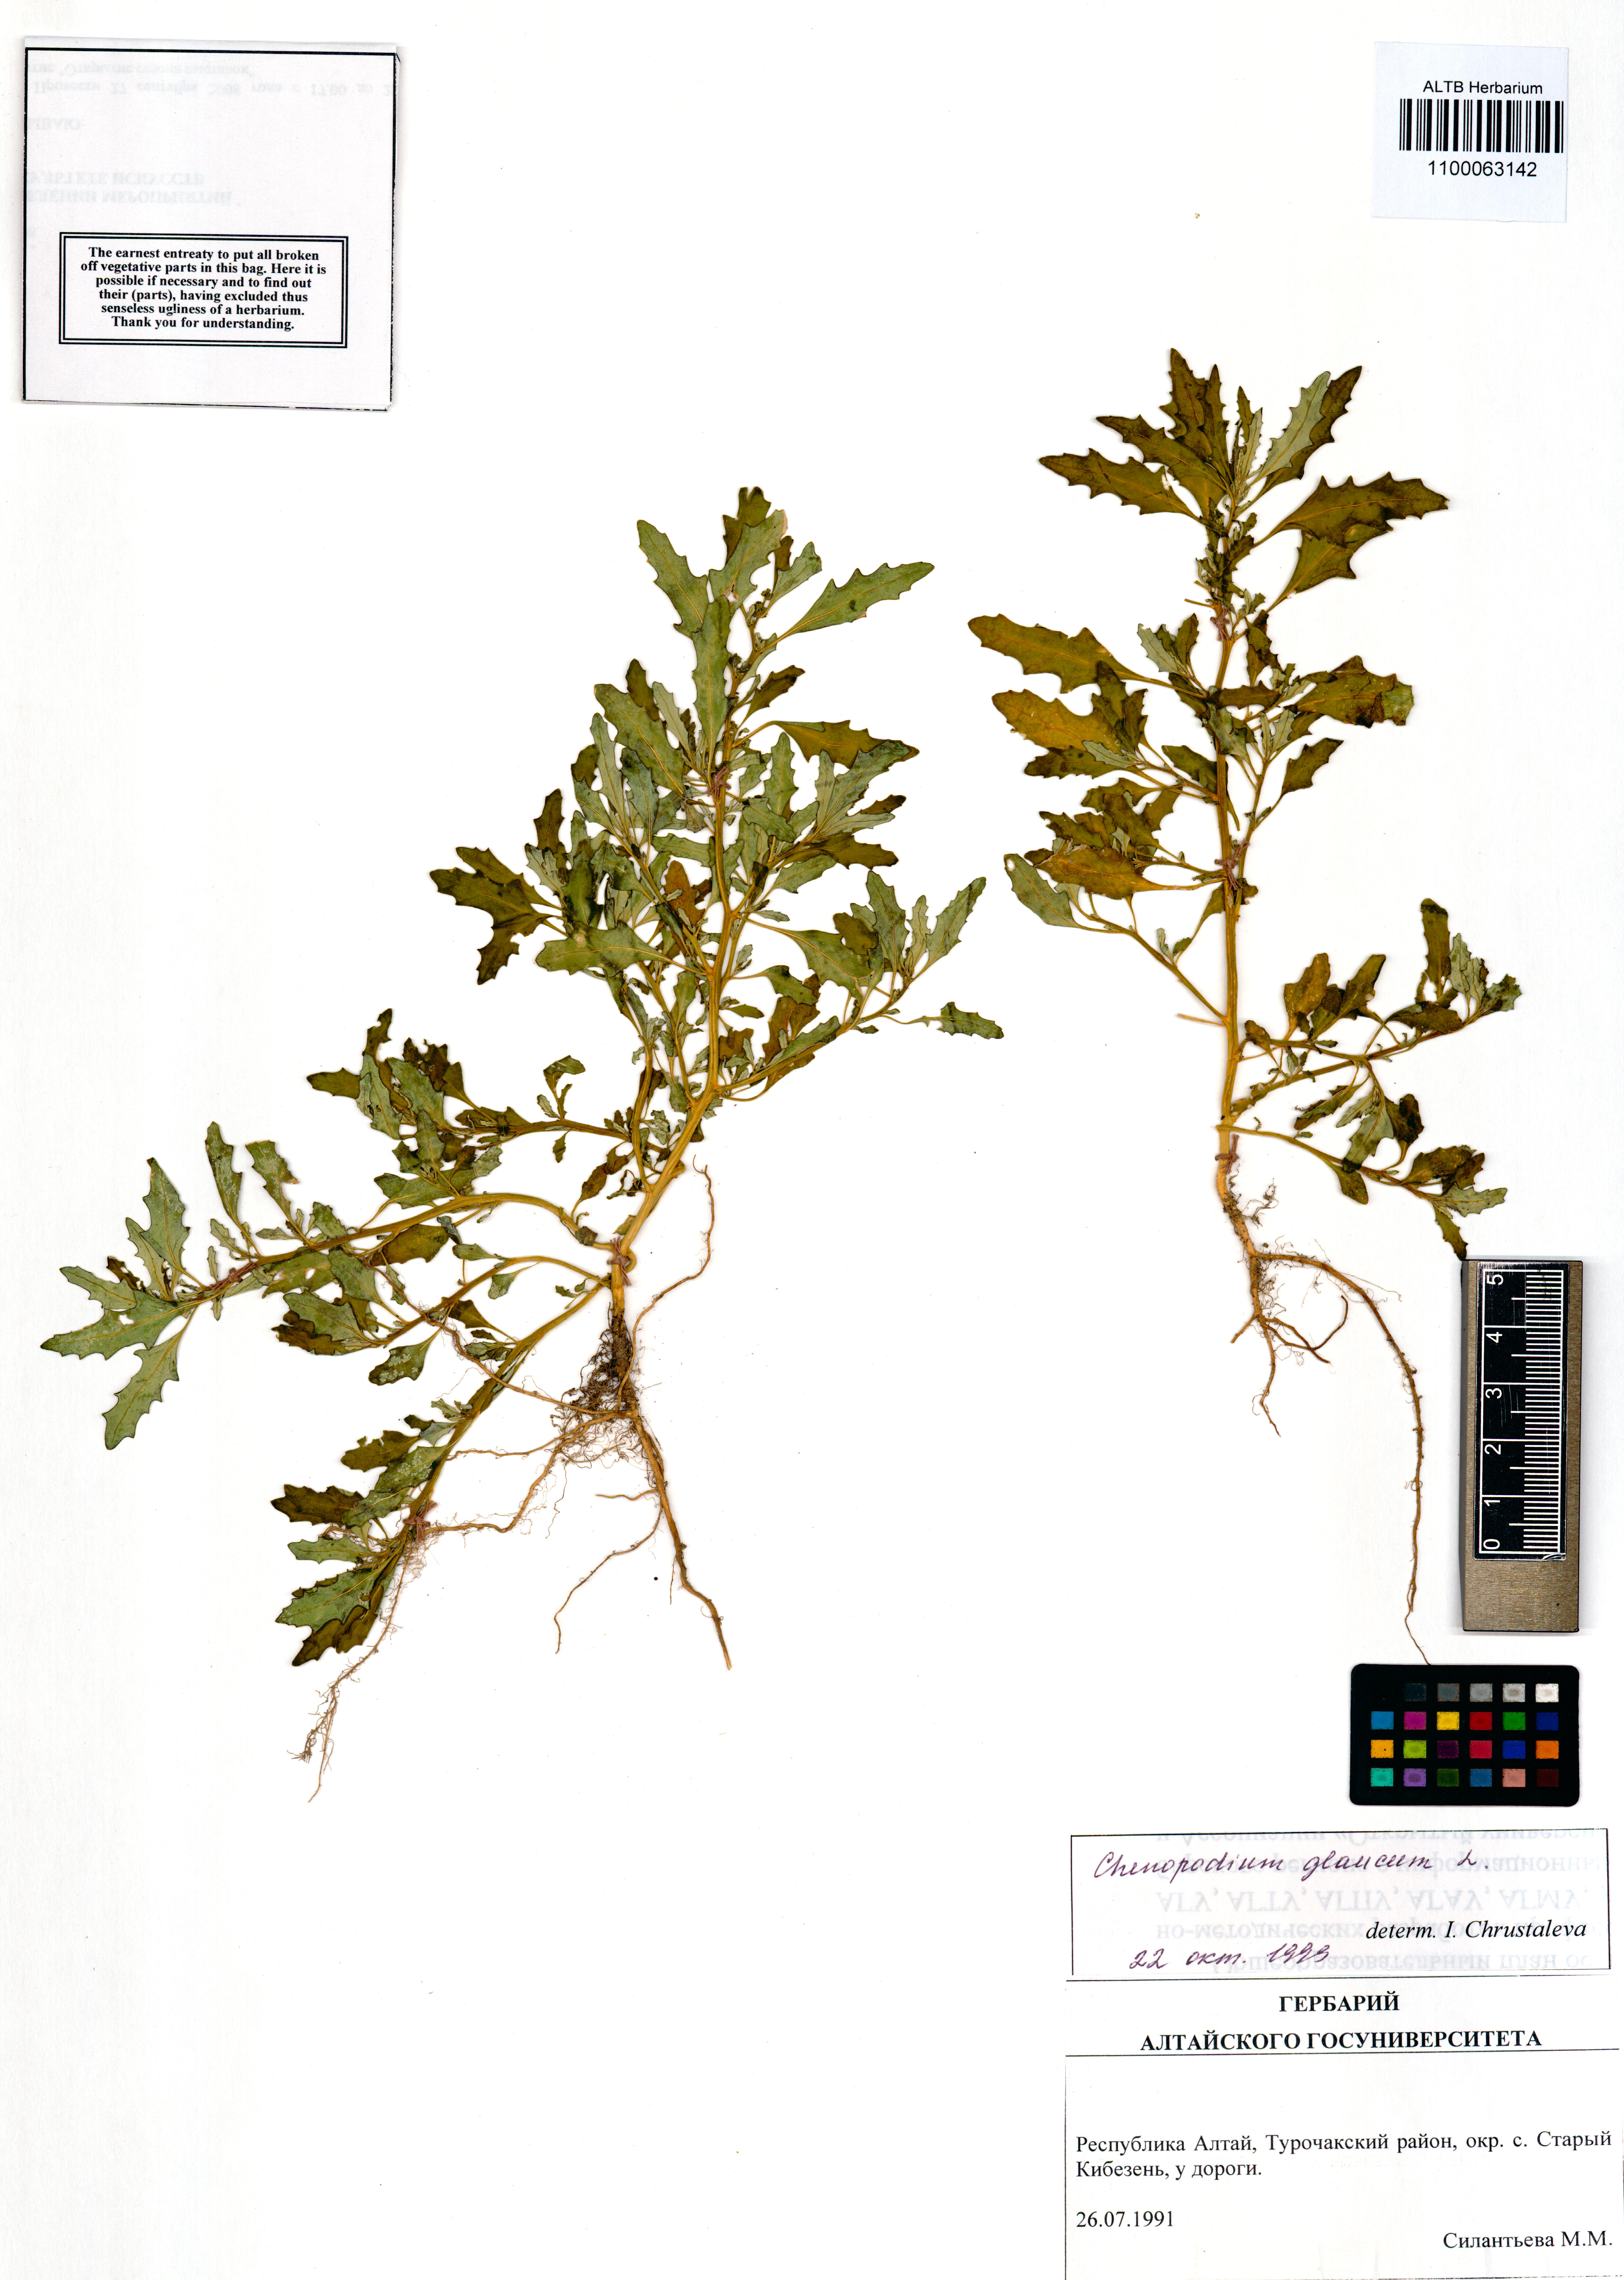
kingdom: Plantae
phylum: Tracheophyta
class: Magnoliopsida
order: Caryophyllales
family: Amaranthaceae
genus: Oxybasis
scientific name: Oxybasis glauca
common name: Glaucous goosefoot
